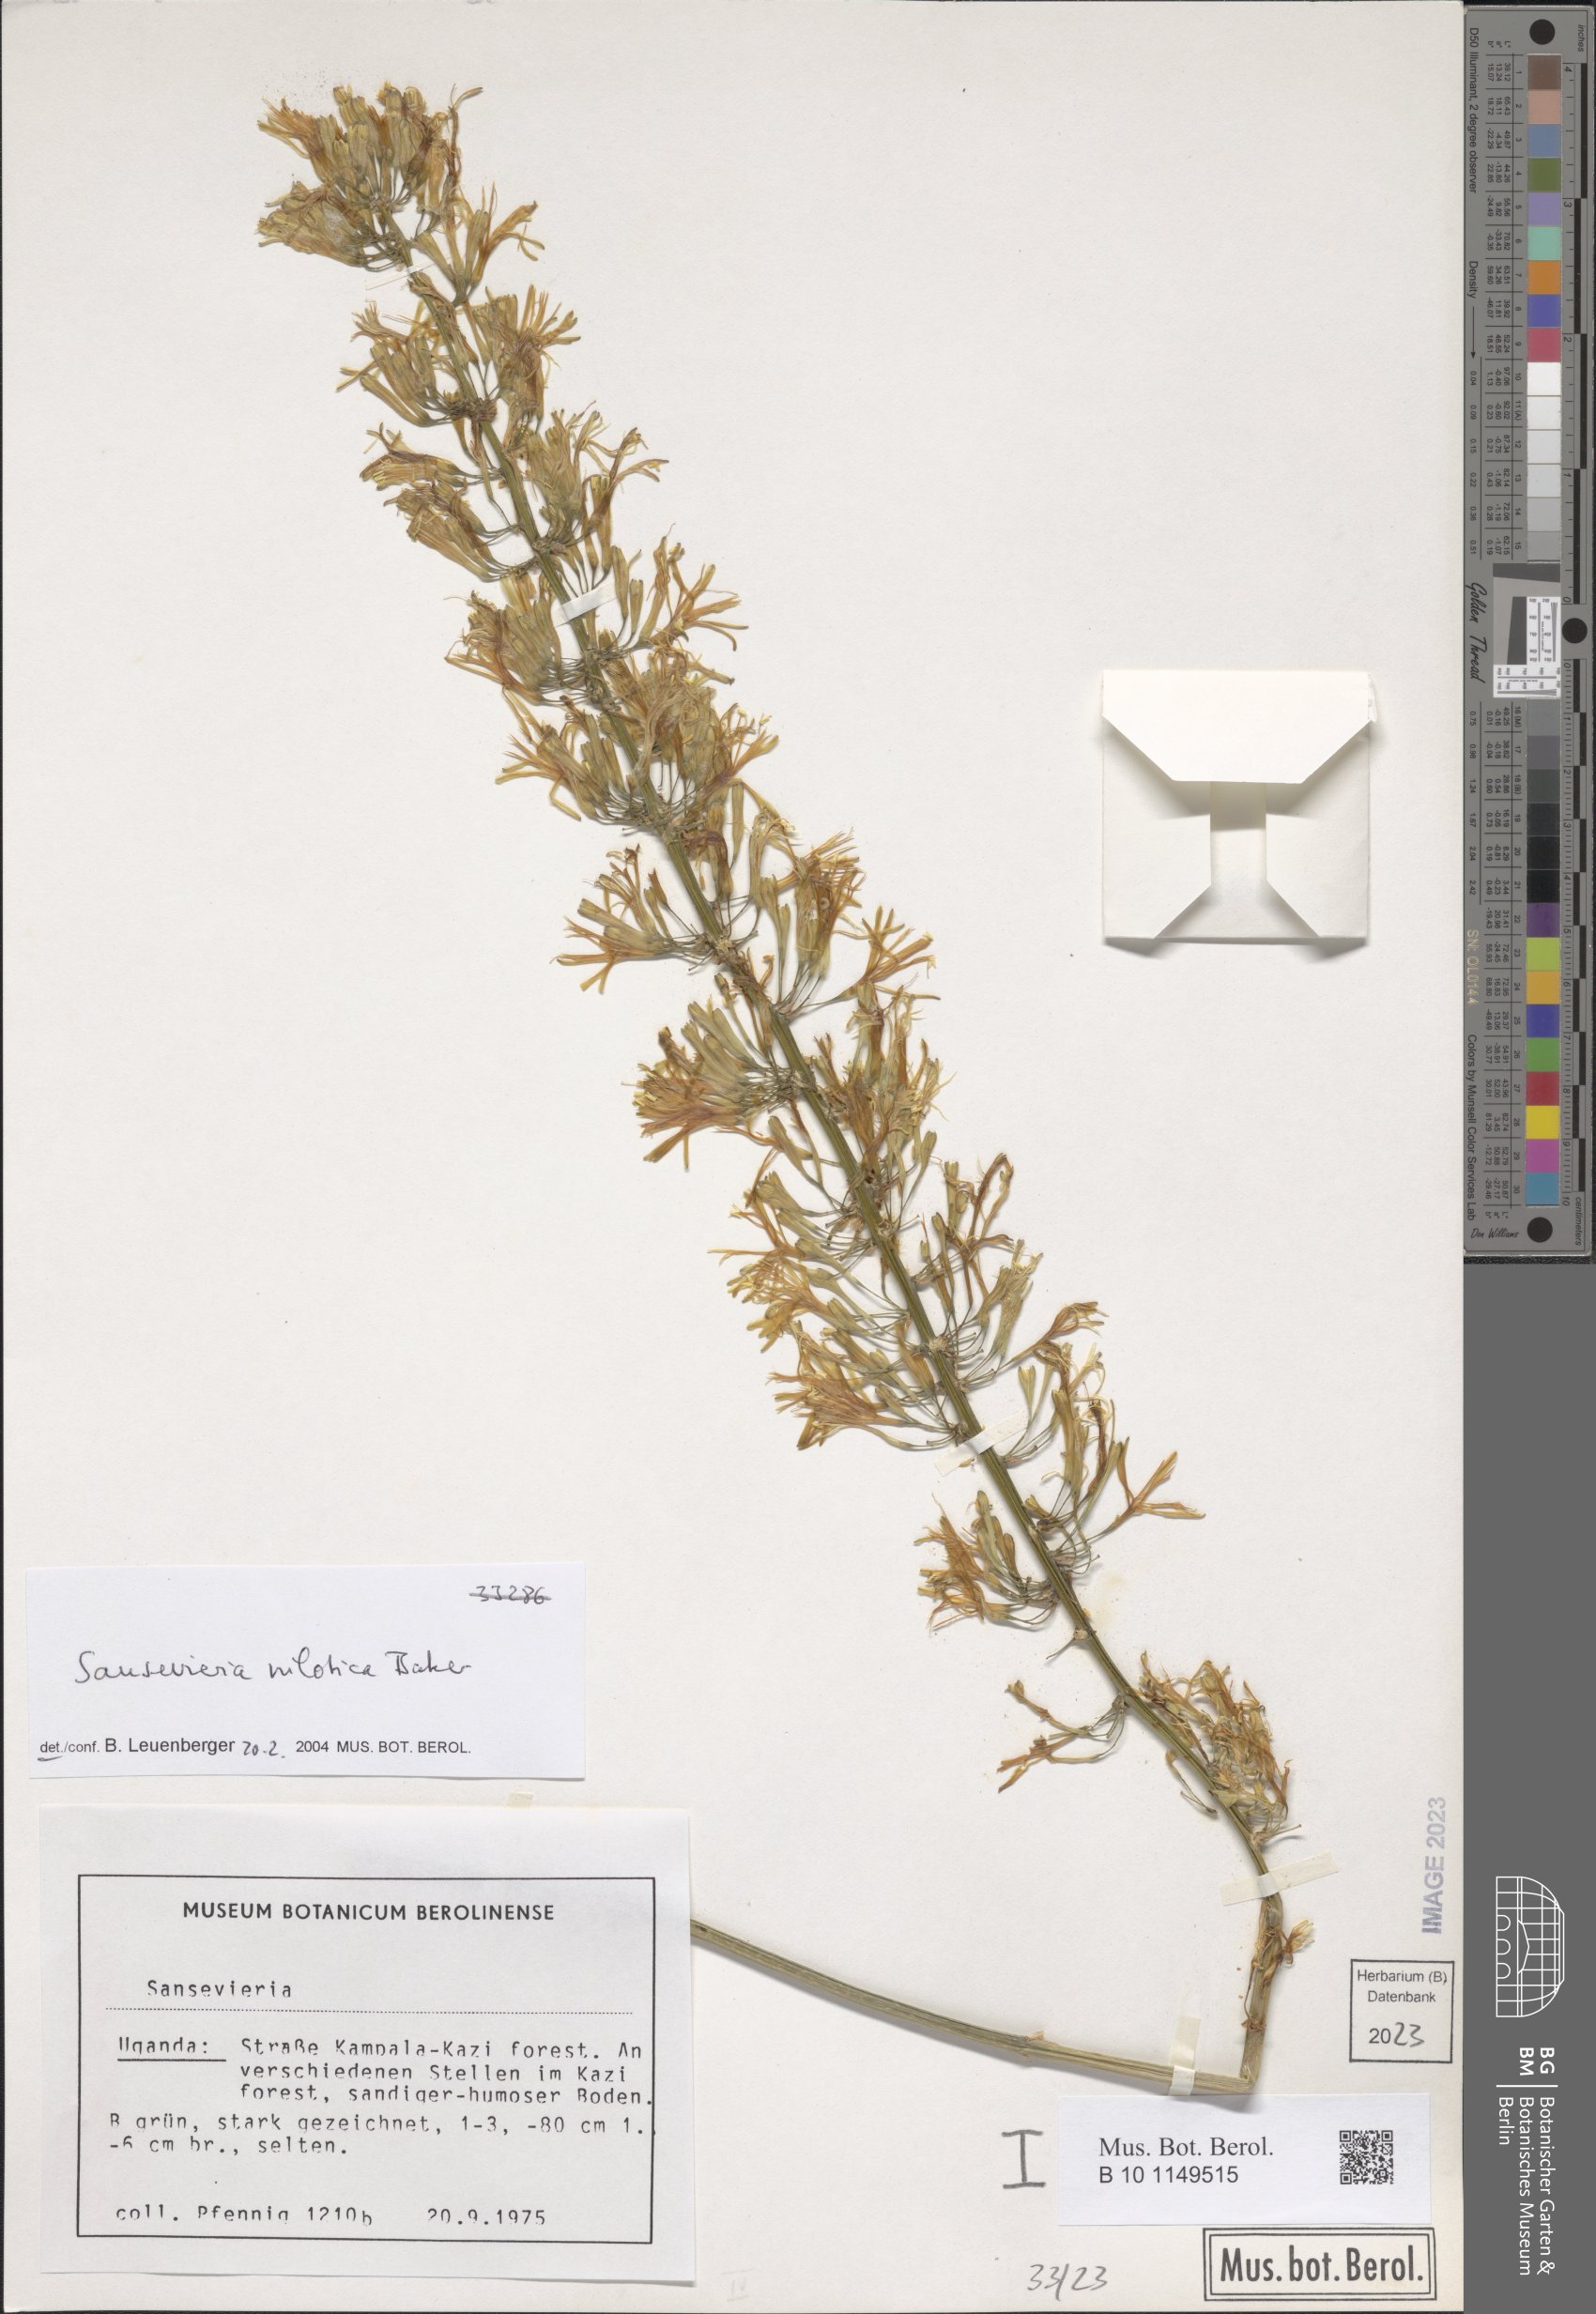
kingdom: Plantae
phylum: Tracheophyta
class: Liliopsida
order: Asparagales
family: Asparagaceae
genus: Dracaena
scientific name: Dracaena nilotica
